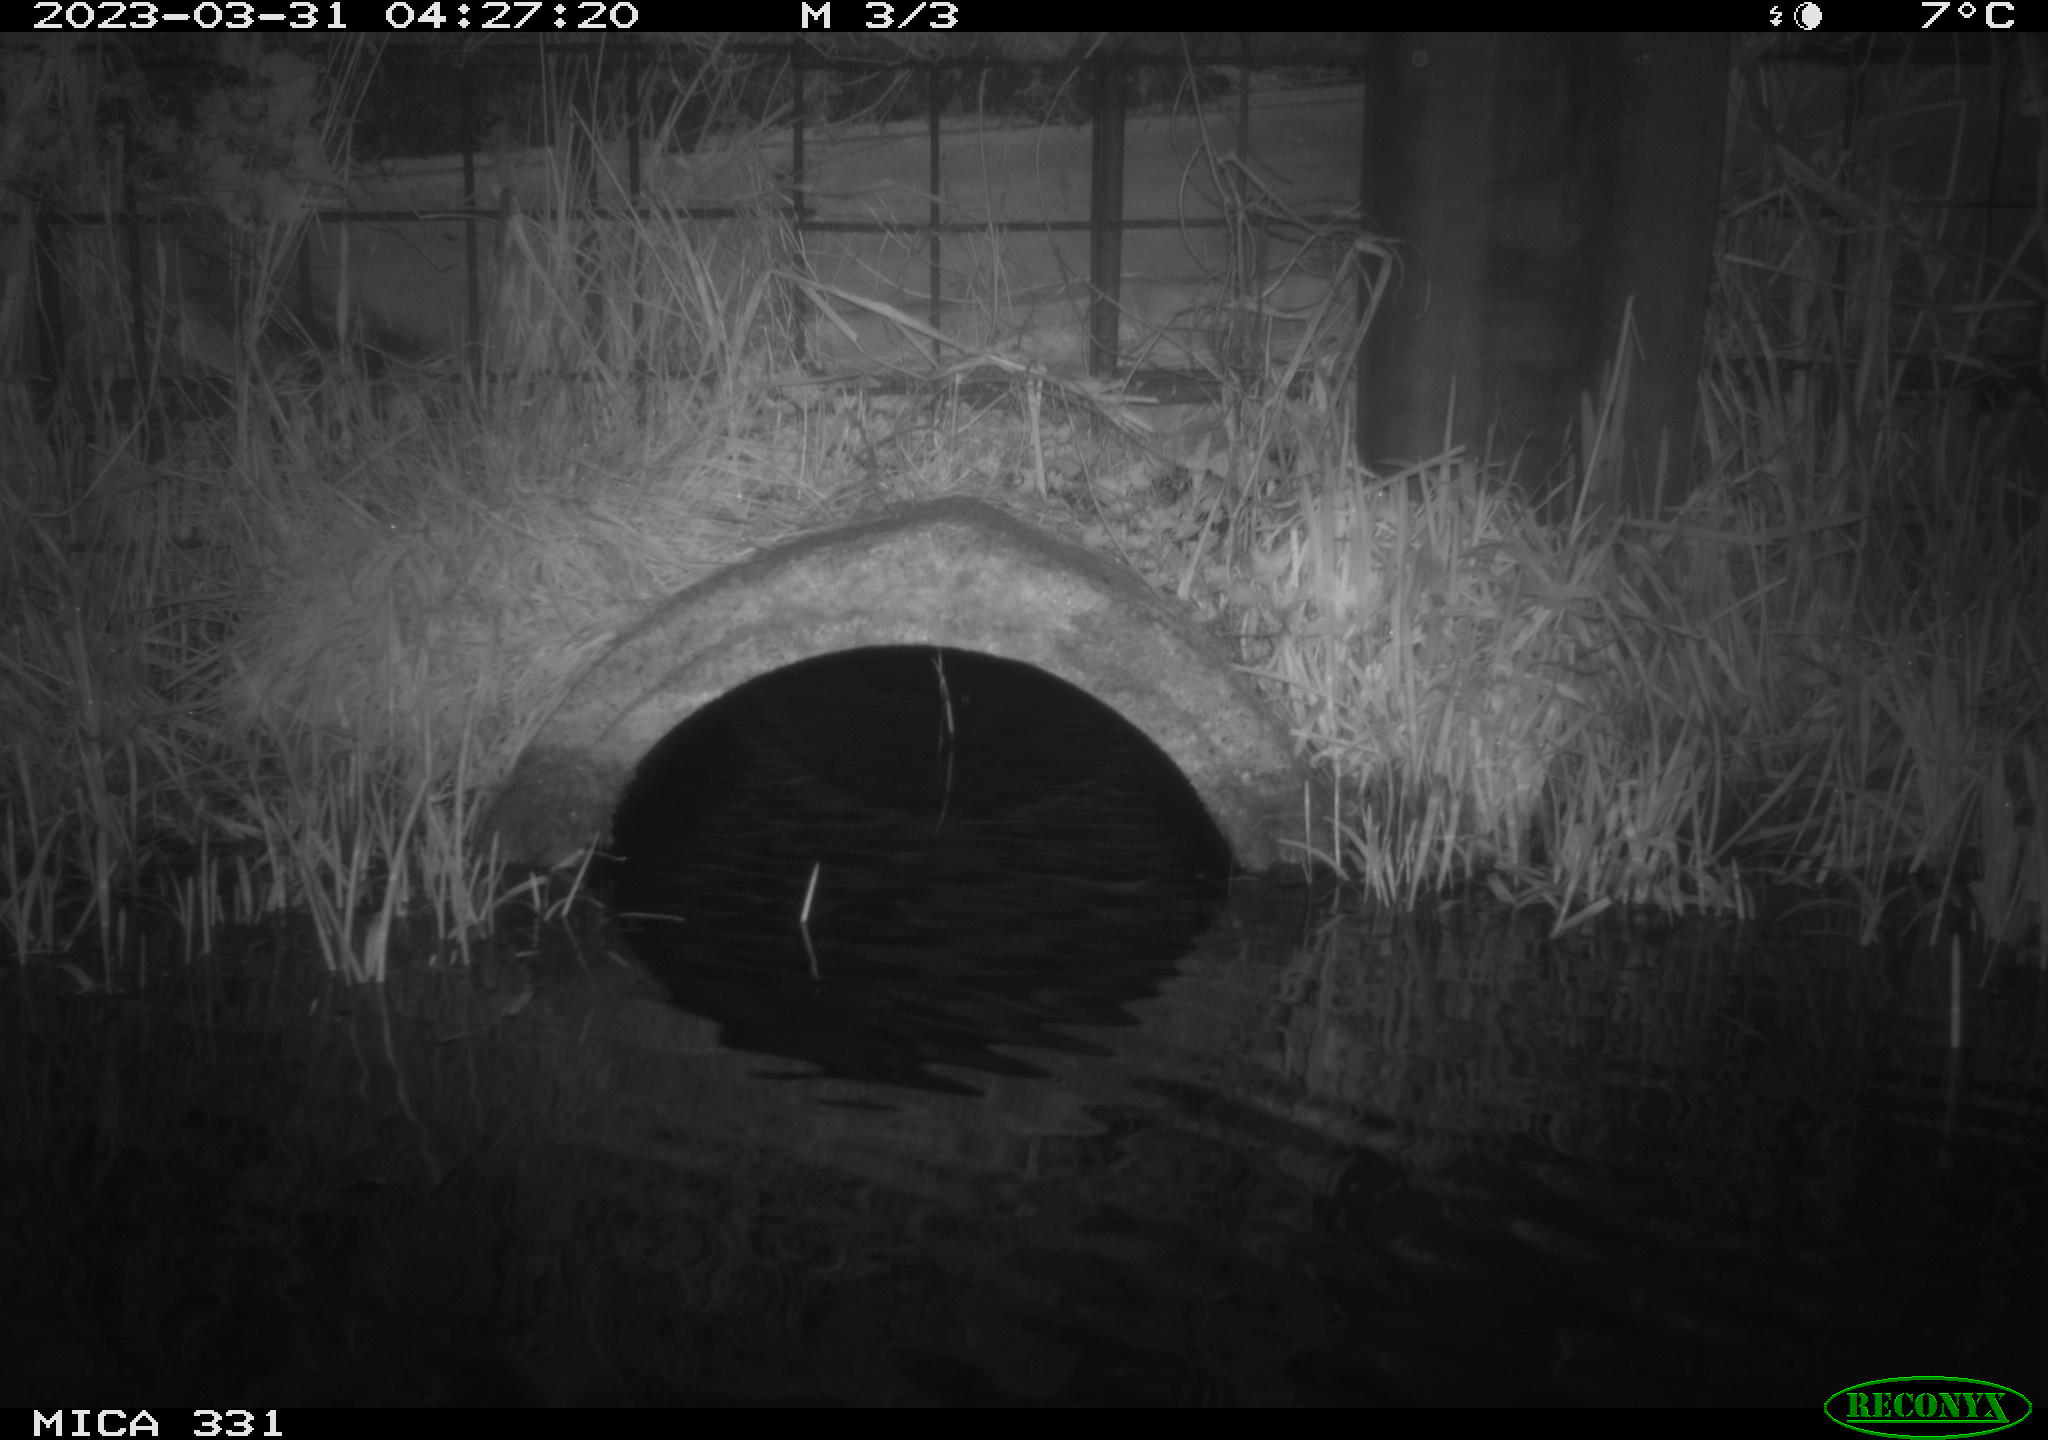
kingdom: Animalia
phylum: Chordata
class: Mammalia
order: Rodentia
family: Muridae
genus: Rattus
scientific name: Rattus norvegicus
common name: Brown rat
